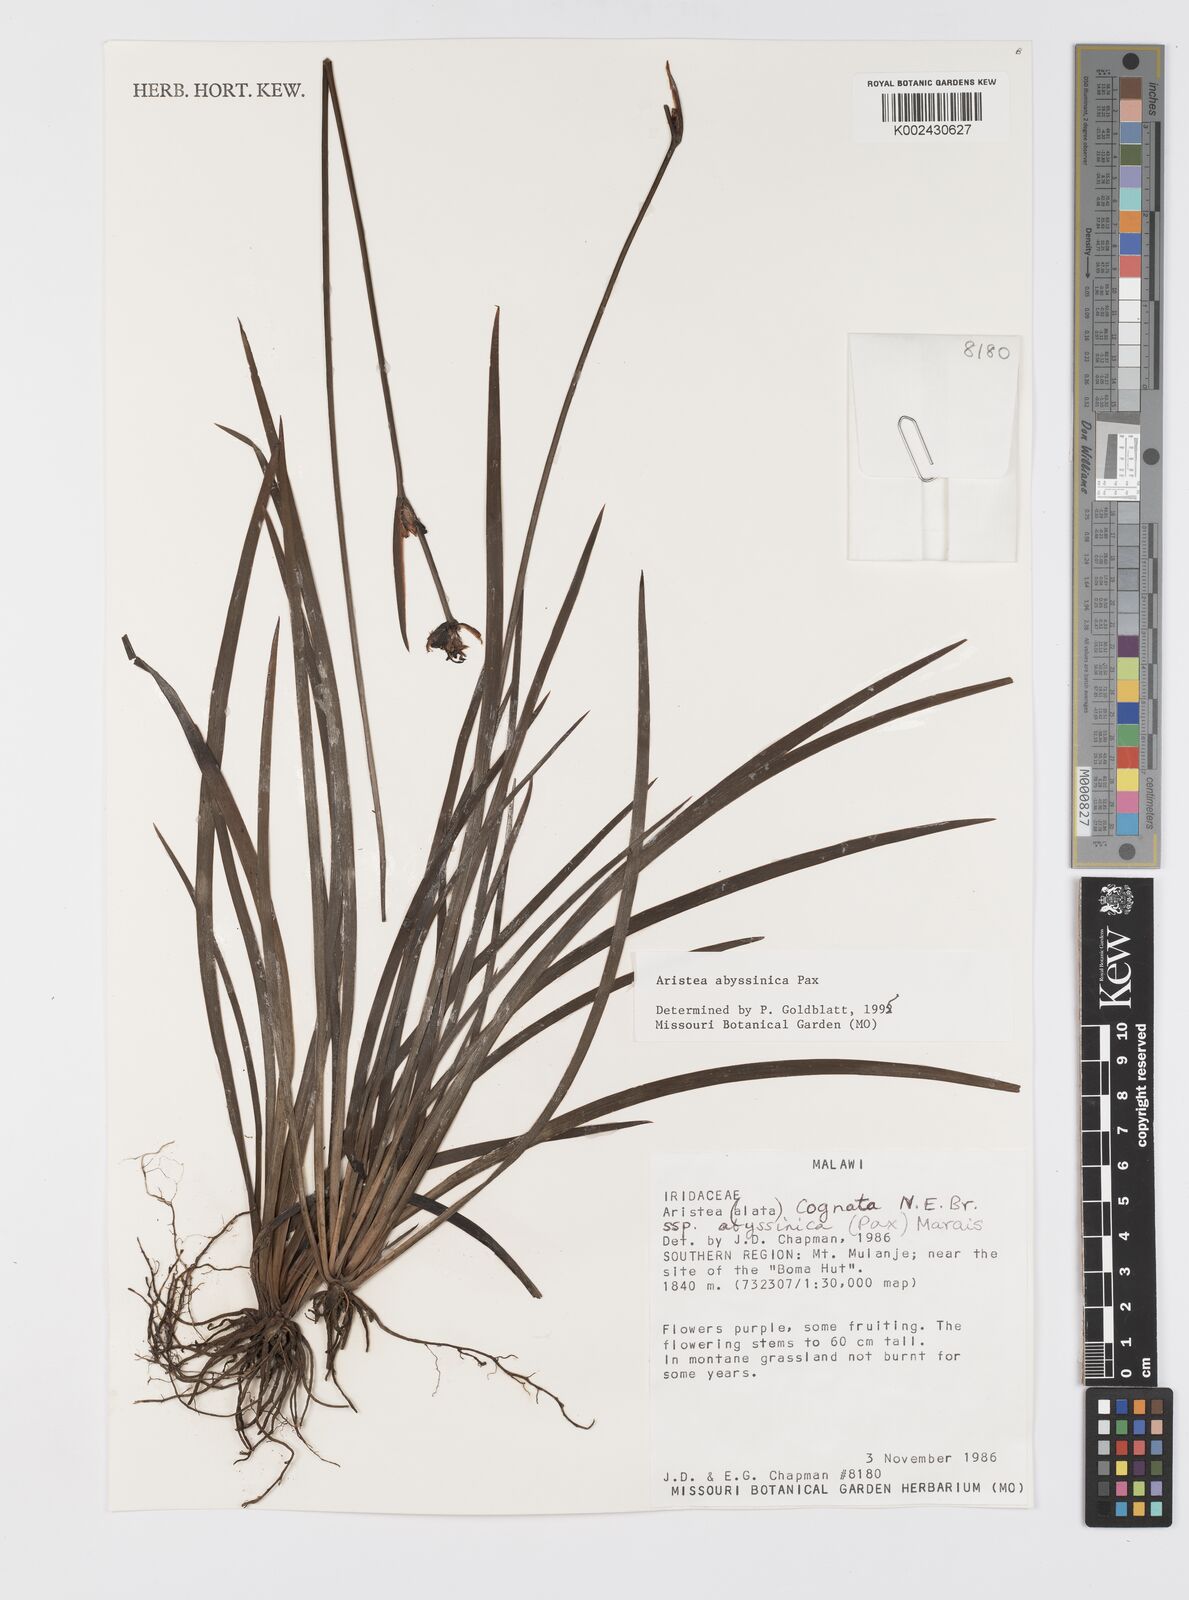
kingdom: Plantae
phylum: Tracheophyta
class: Liliopsida
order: Asparagales
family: Iridaceae
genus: Aristea
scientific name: Aristea abyssinica
